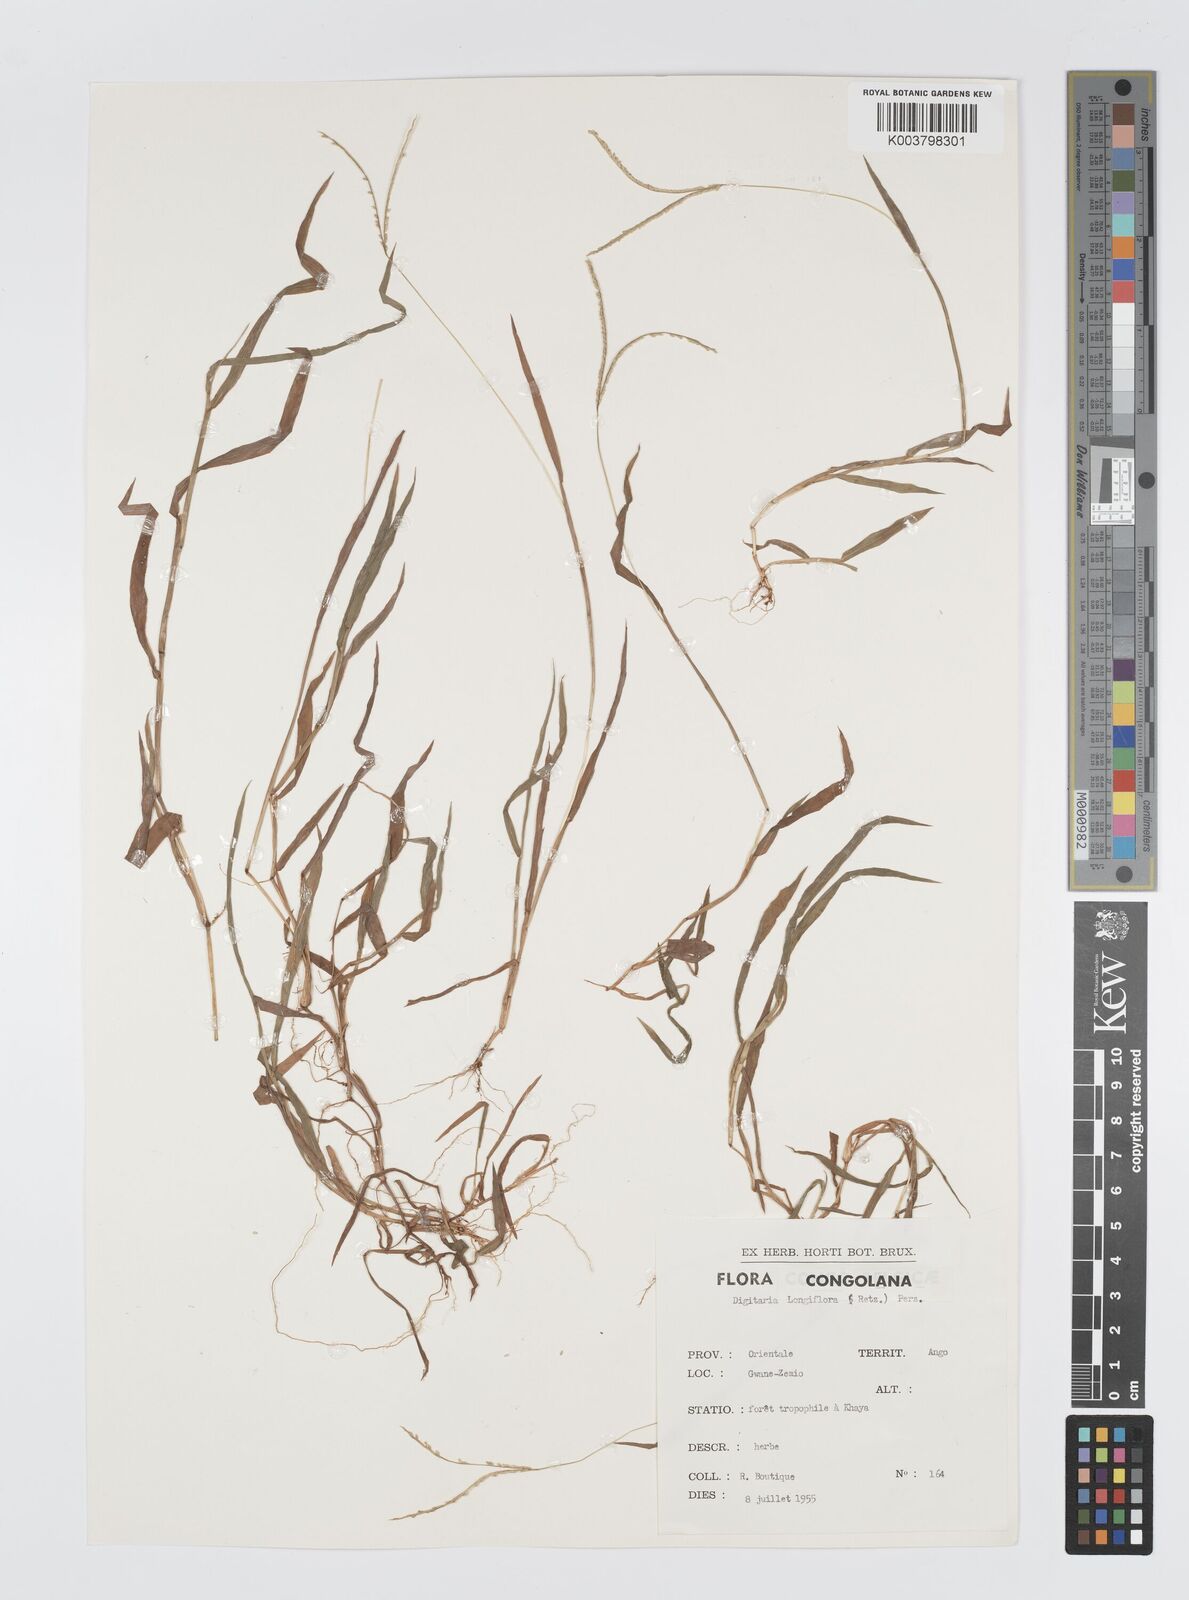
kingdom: Plantae
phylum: Tracheophyta
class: Liliopsida
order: Poales
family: Poaceae
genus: Digitaria
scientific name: Digitaria longiflora
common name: Wire crabgrass
